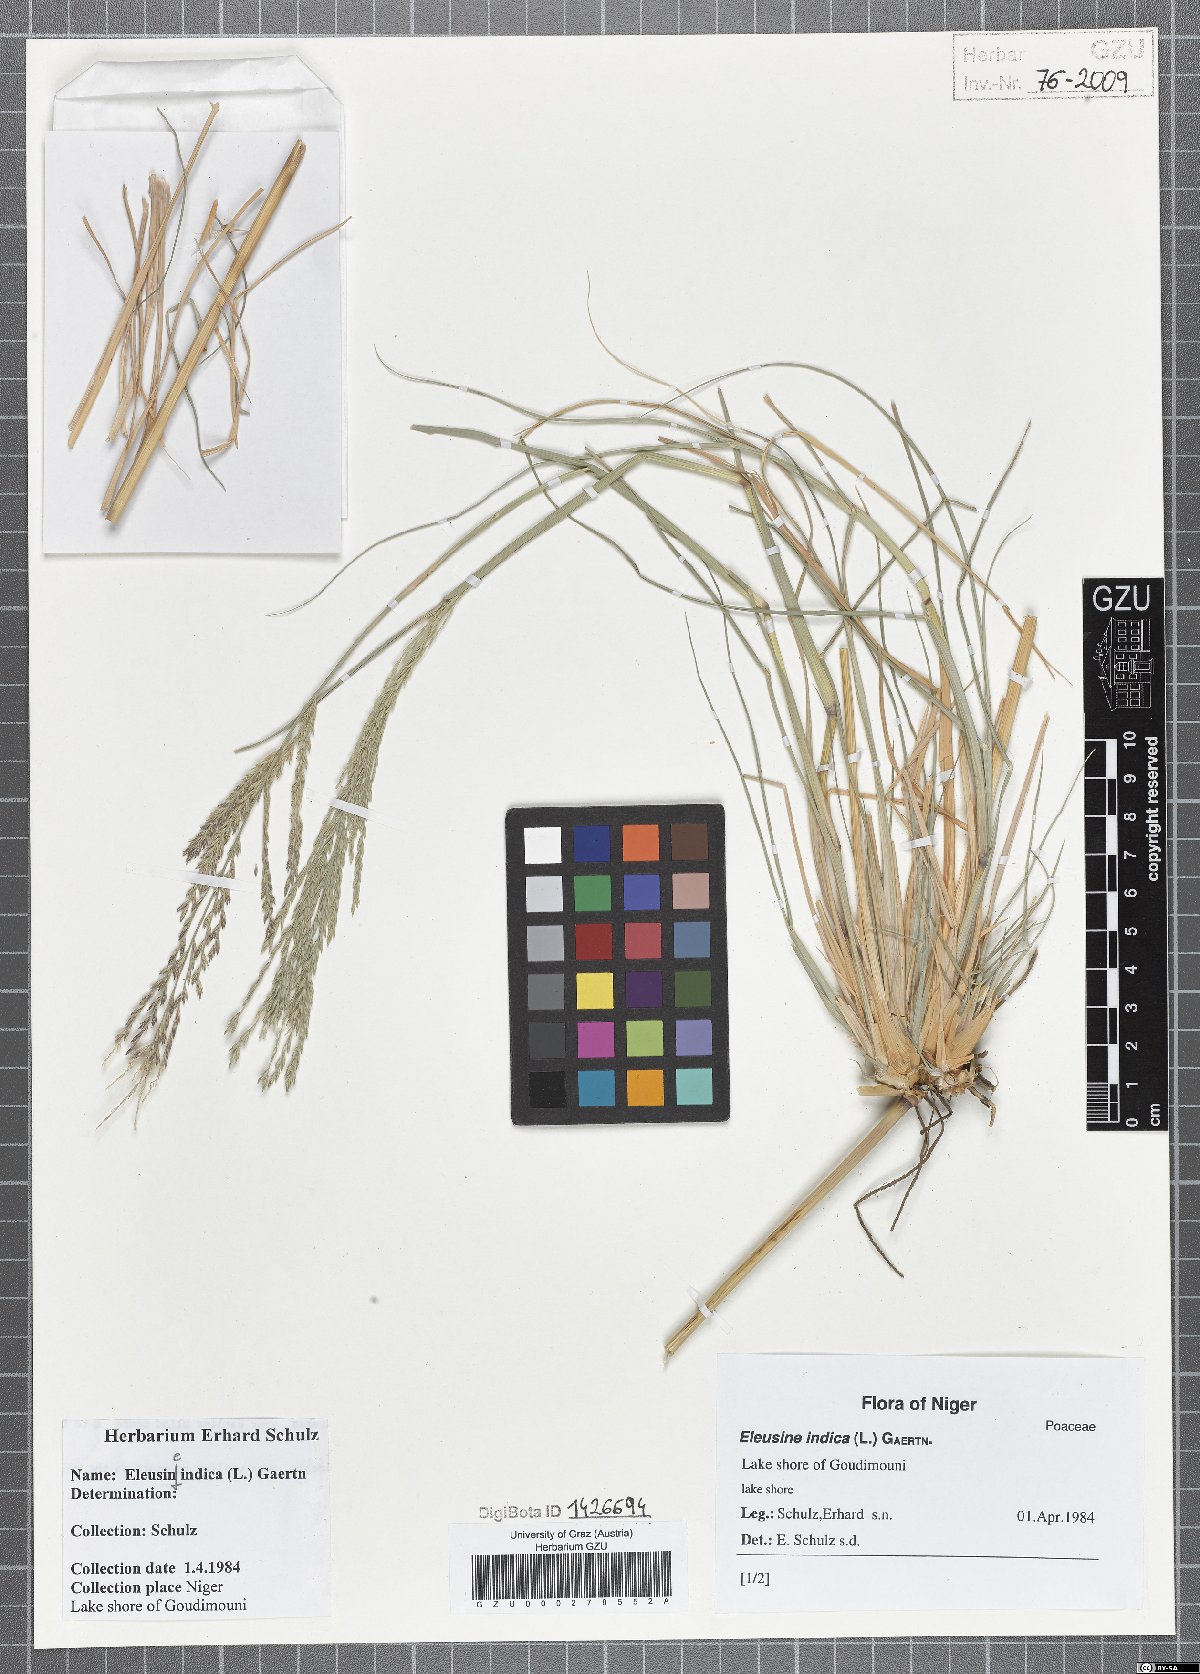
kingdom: Plantae
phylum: Tracheophyta
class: Liliopsida
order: Poales
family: Poaceae
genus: Eleusine
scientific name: Eleusine indica
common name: Yard-grass
